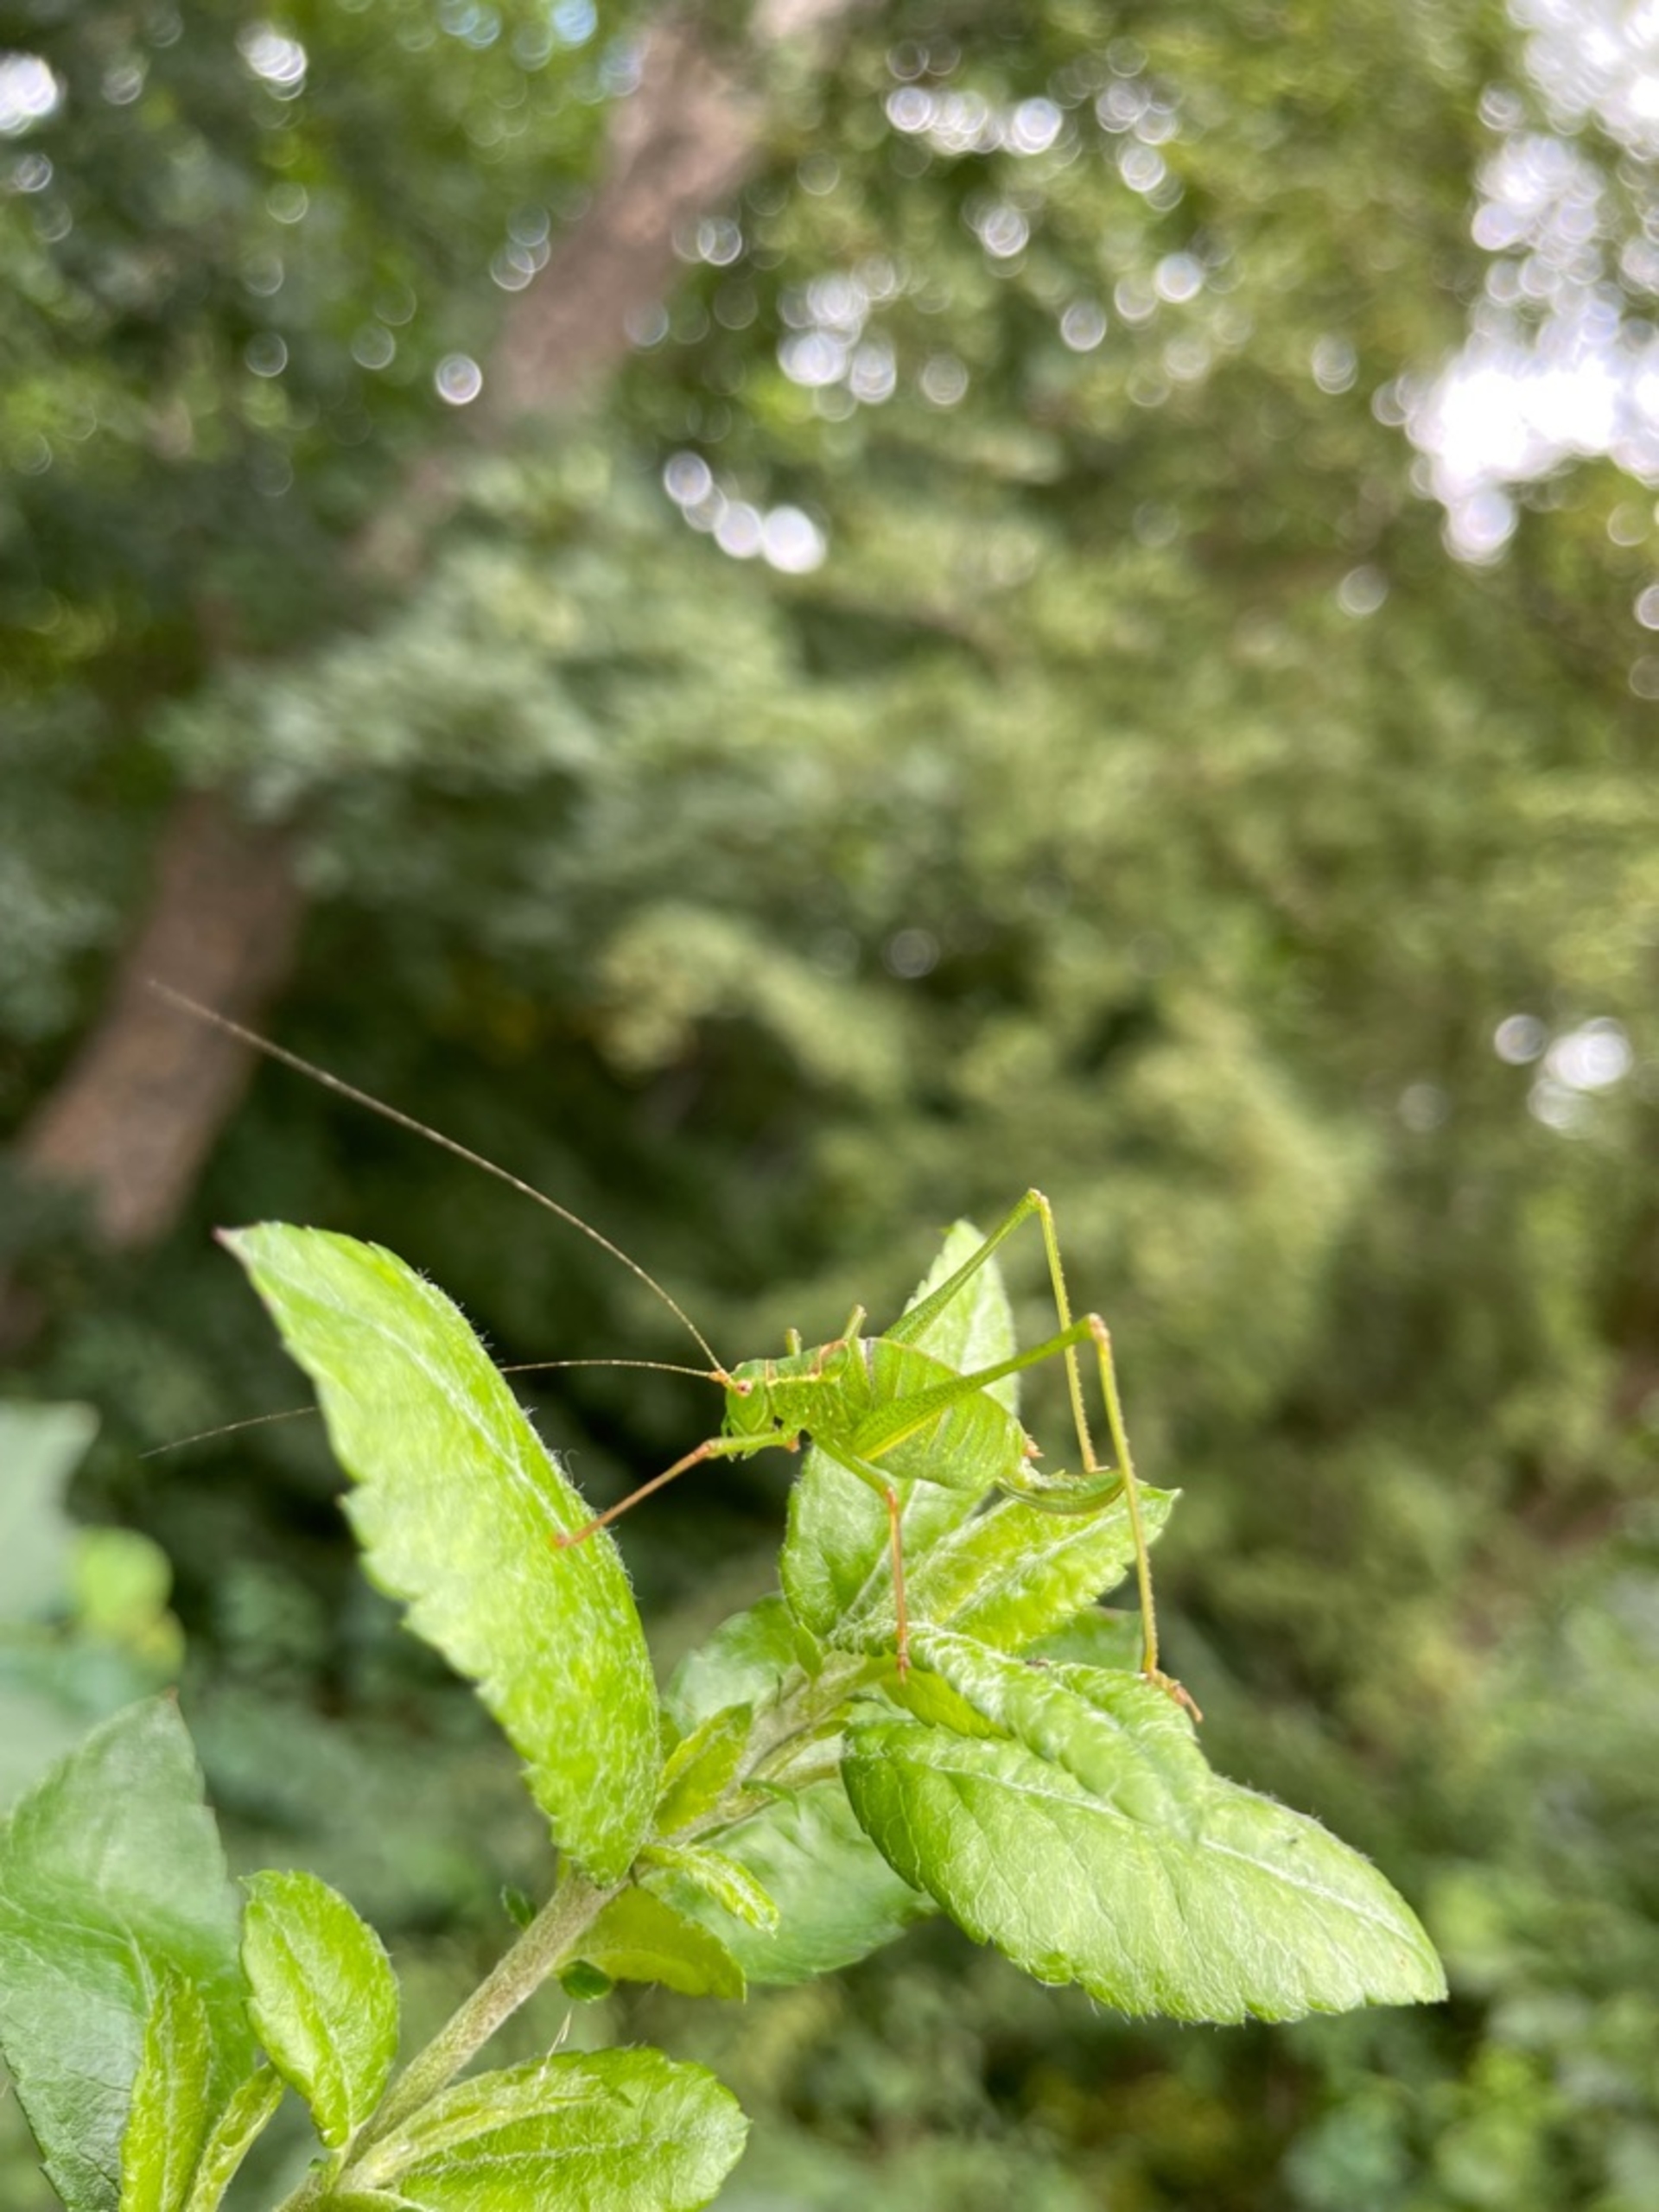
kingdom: Animalia
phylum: Arthropoda
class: Insecta
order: Orthoptera
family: Tettigoniidae
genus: Leptophyes
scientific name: Leptophyes punctatissima
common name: Krumknivgræshoppe
